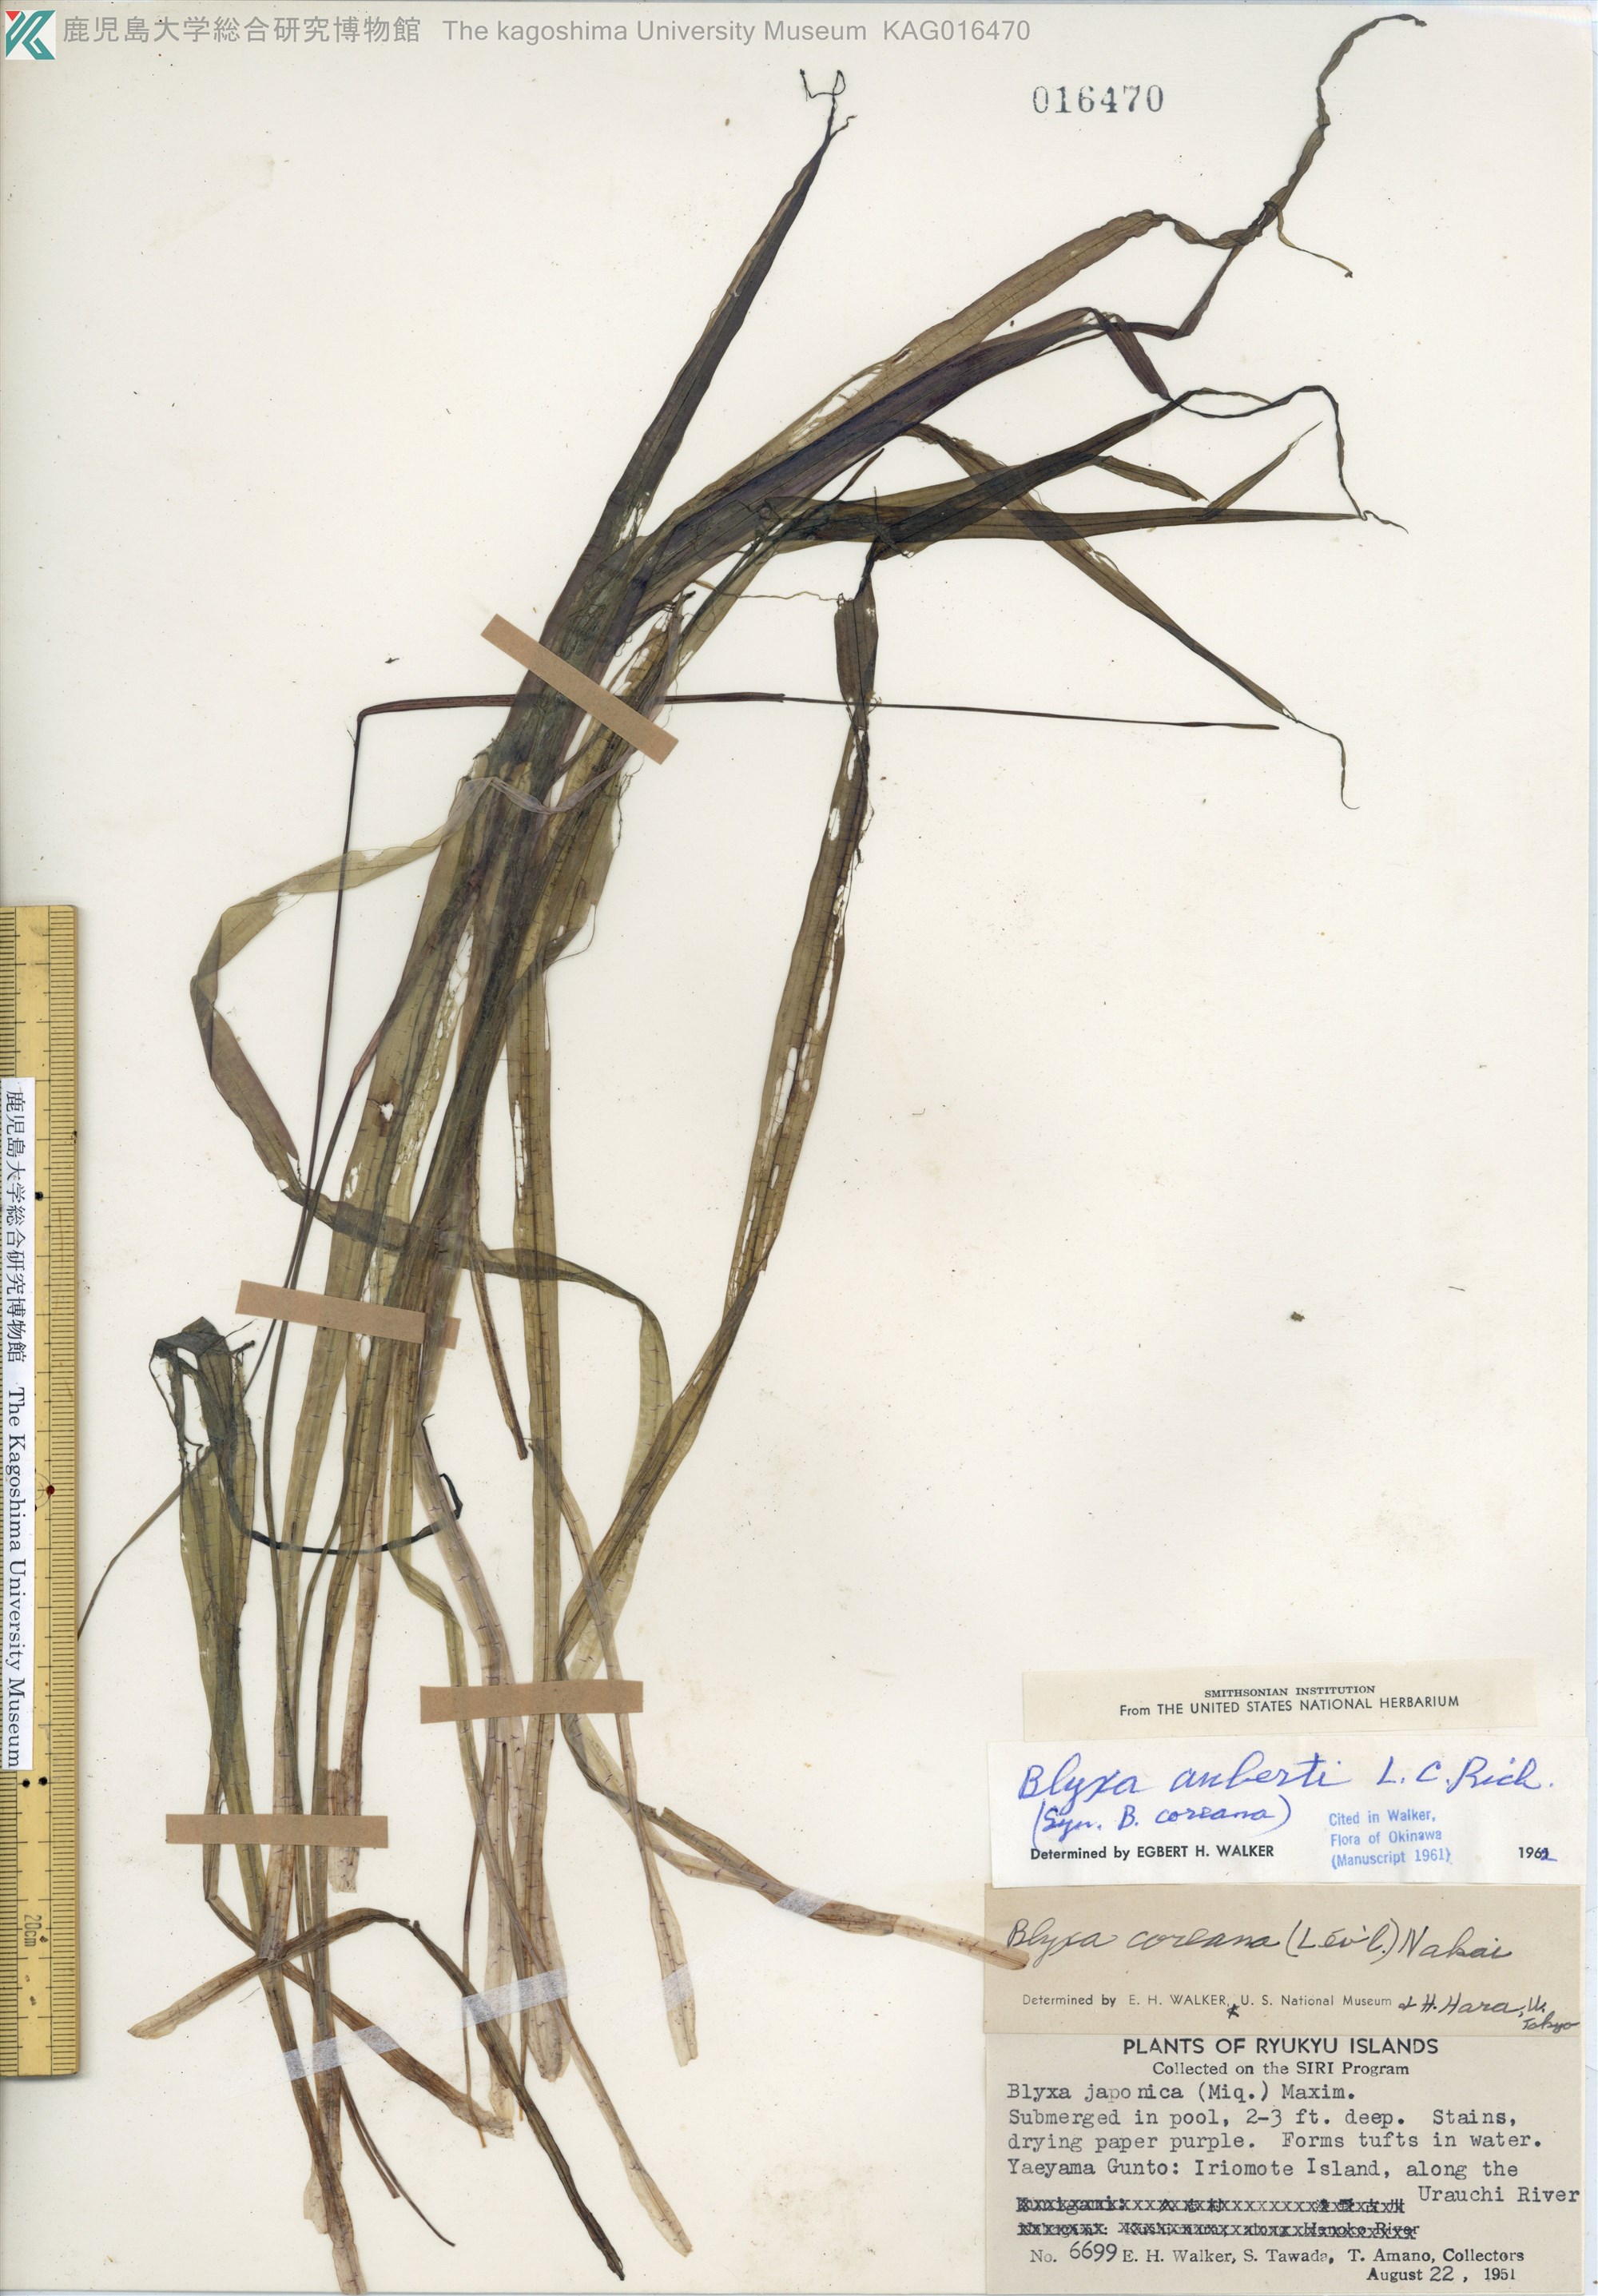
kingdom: Plantae
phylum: Tracheophyta
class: Liliopsida
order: Alismatales
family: Hydrocharitaceae
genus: Blyxa
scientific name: Blyxa aubertii
